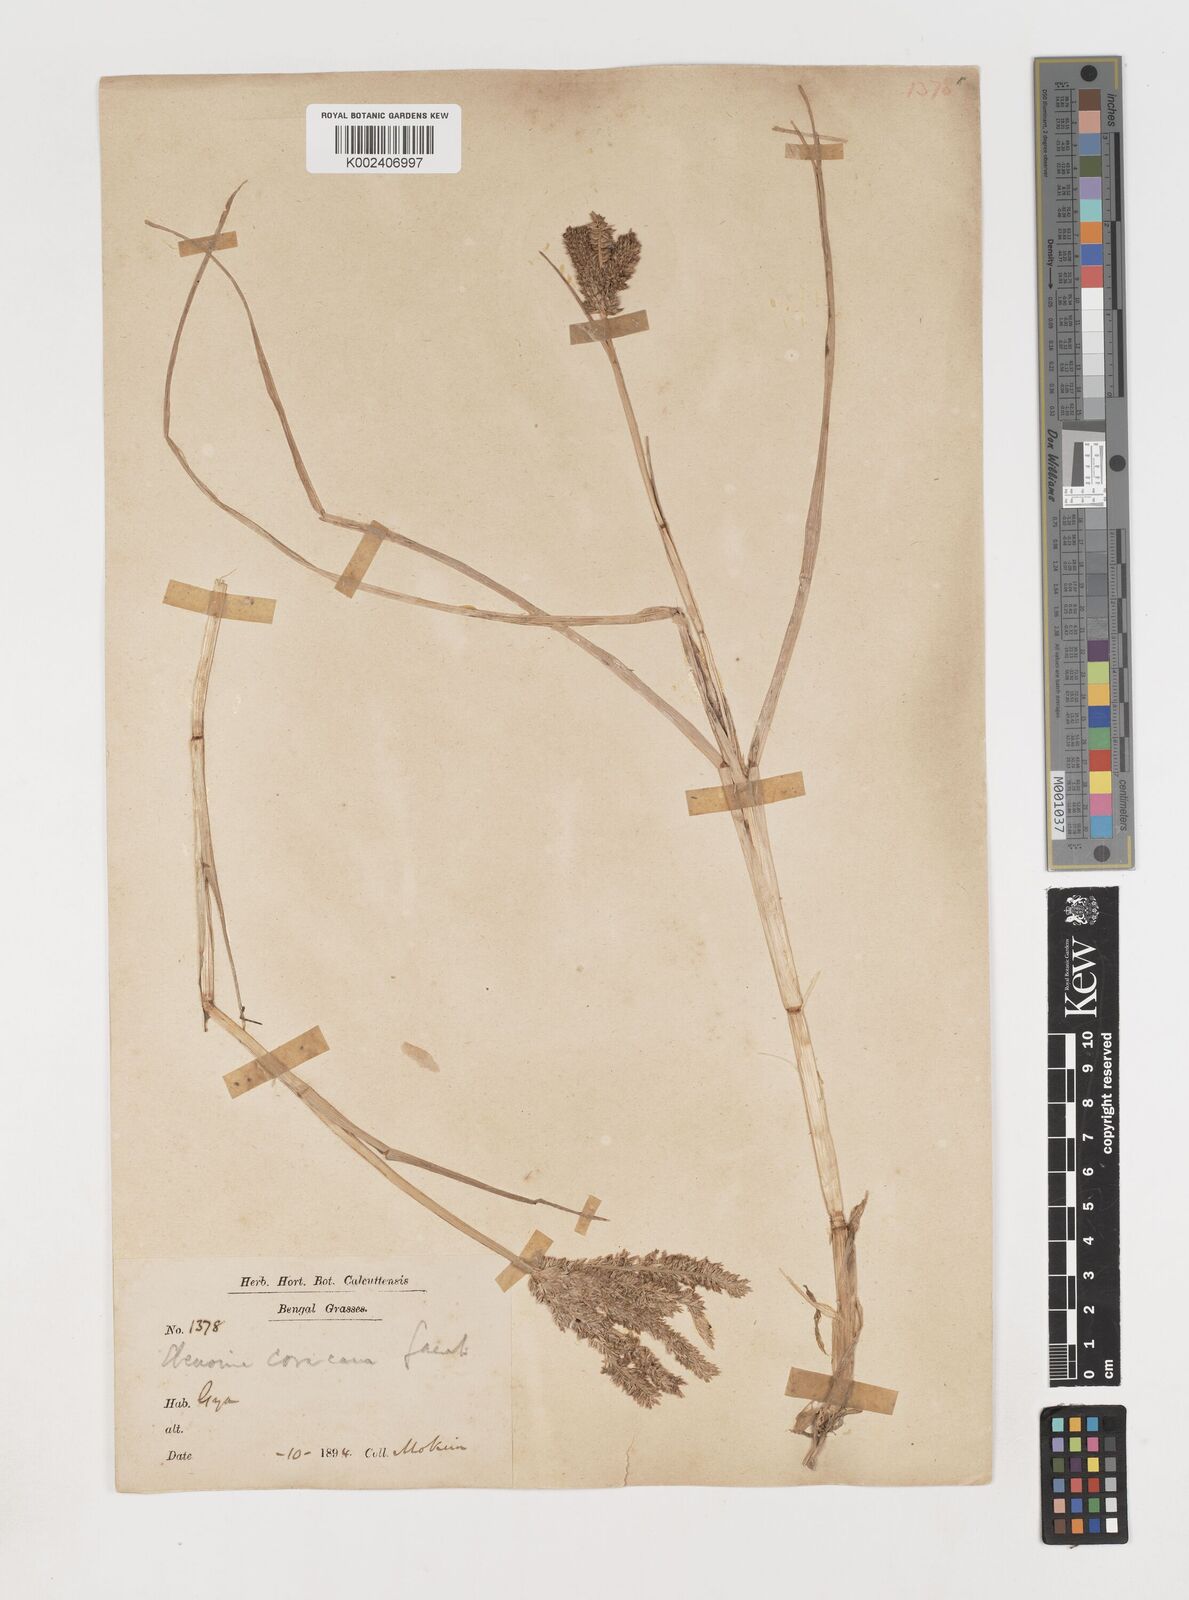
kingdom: Plantae
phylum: Tracheophyta
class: Liliopsida
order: Poales
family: Poaceae
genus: Eleusine
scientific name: Eleusine coracana
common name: Finger millet
